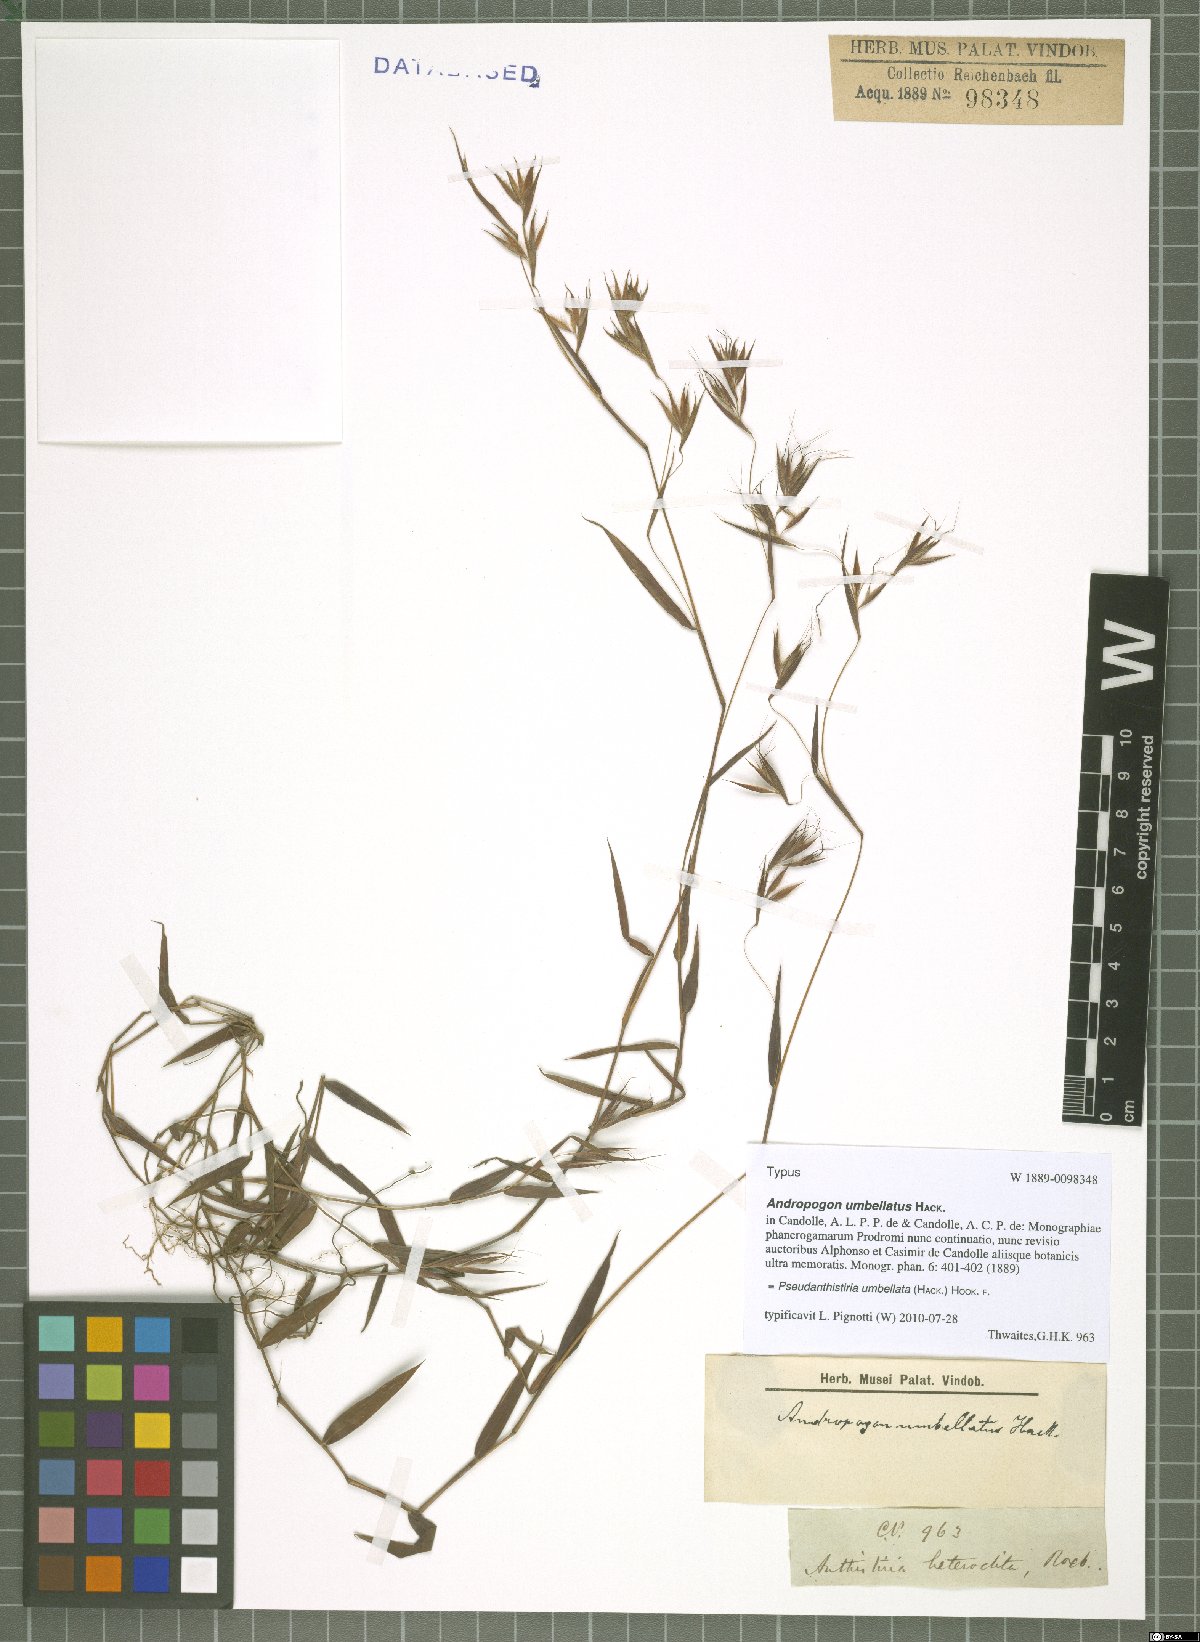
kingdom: Plantae
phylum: Tracheophyta
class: Liliopsida
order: Poales
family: Poaceae
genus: Pseudanthistiria
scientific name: Pseudanthistiria umbellata
